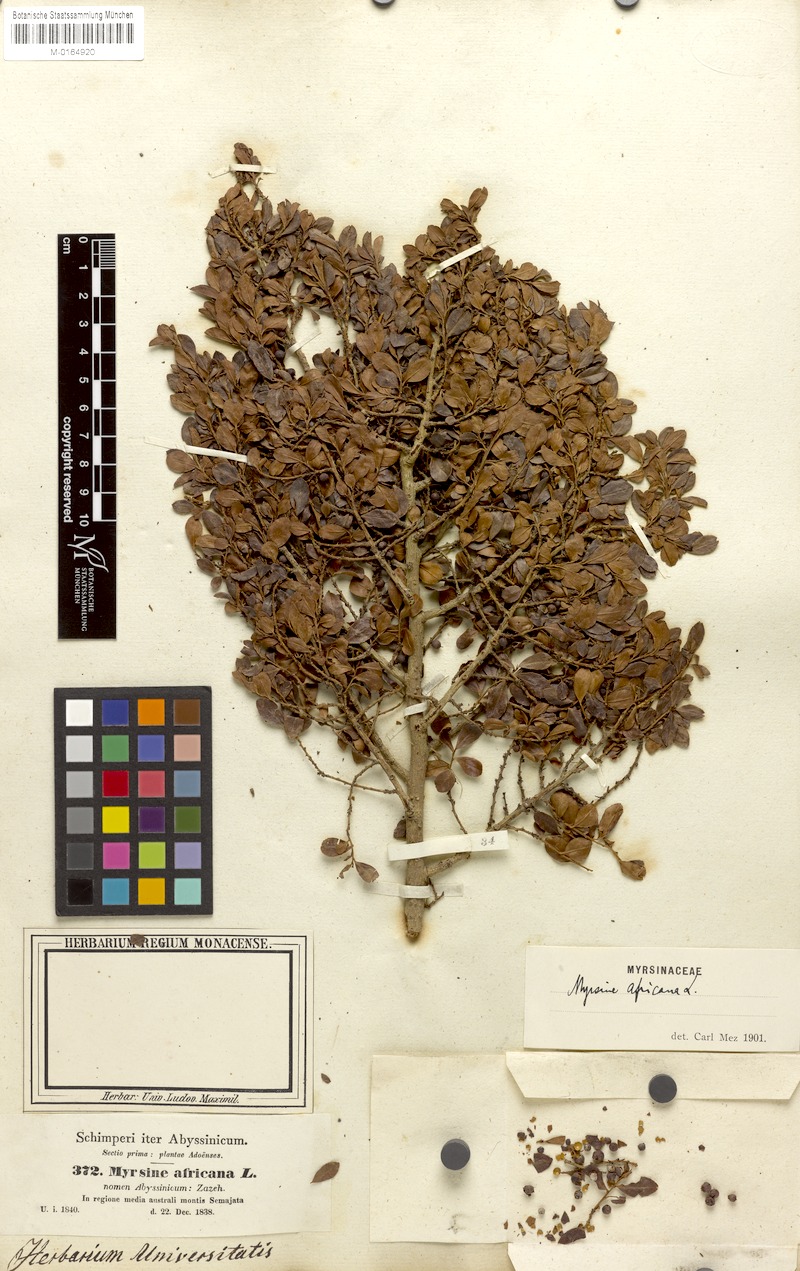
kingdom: Plantae
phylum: Tracheophyta
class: Magnoliopsida
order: Ericales
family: Primulaceae
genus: Myrsine
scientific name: Myrsine africana
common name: African-boxwood
